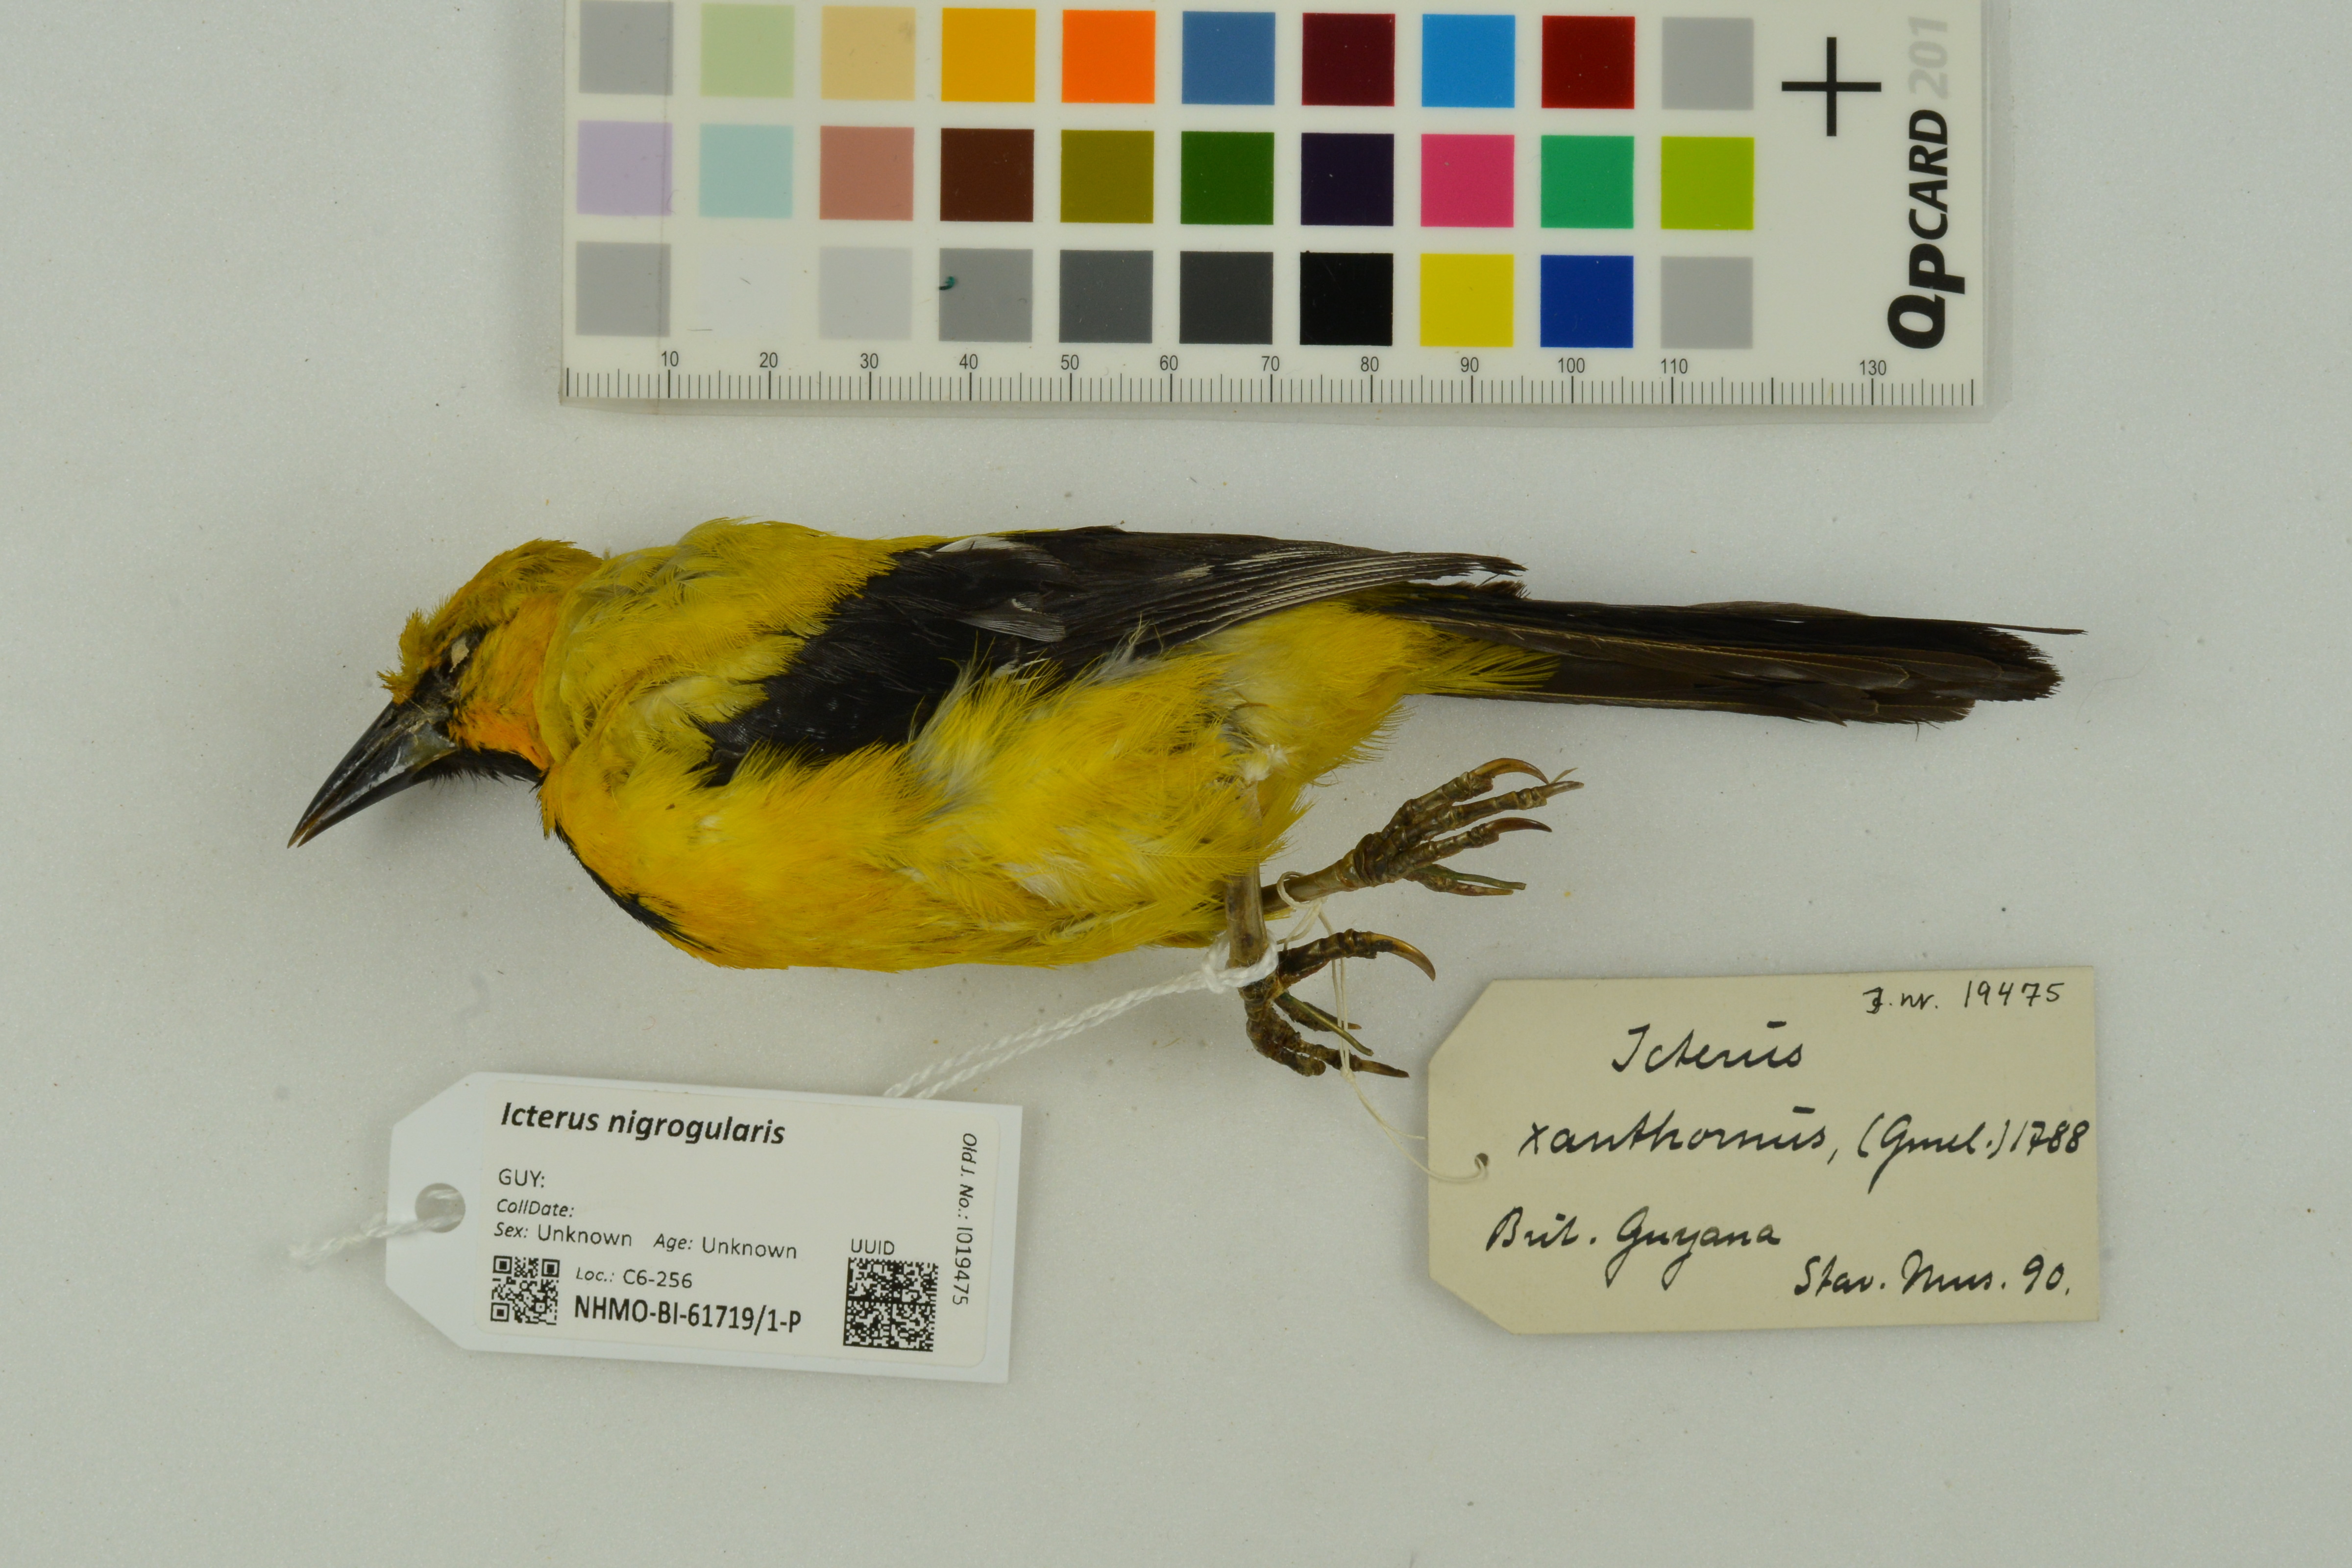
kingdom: Animalia
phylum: Chordata
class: Aves
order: Passeriformes
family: Icteridae
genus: Icterus
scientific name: Icterus nigrogularis
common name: Yellow oriole
